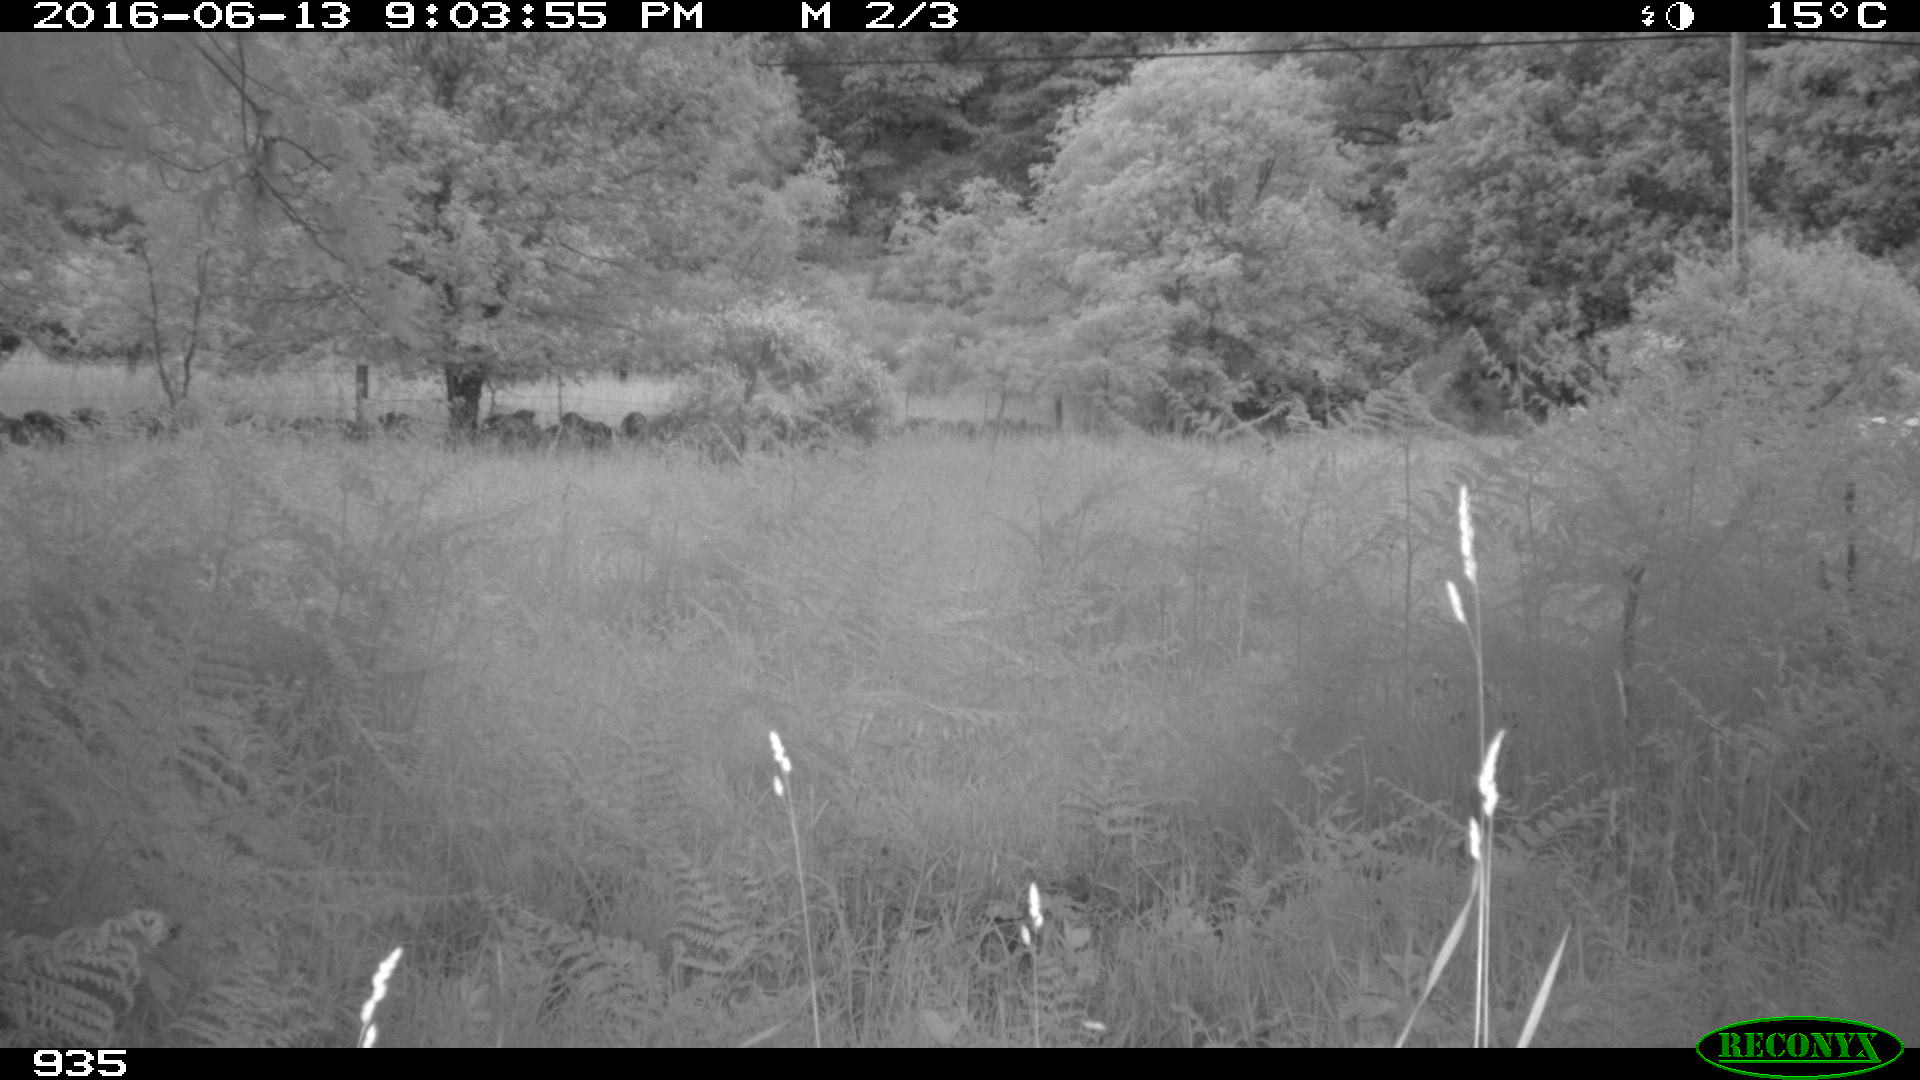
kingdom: Animalia
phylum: Chordata
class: Mammalia
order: Artiodactyla
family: Bovidae
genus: Bos
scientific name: Bos taurus
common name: Domesticated cattle
